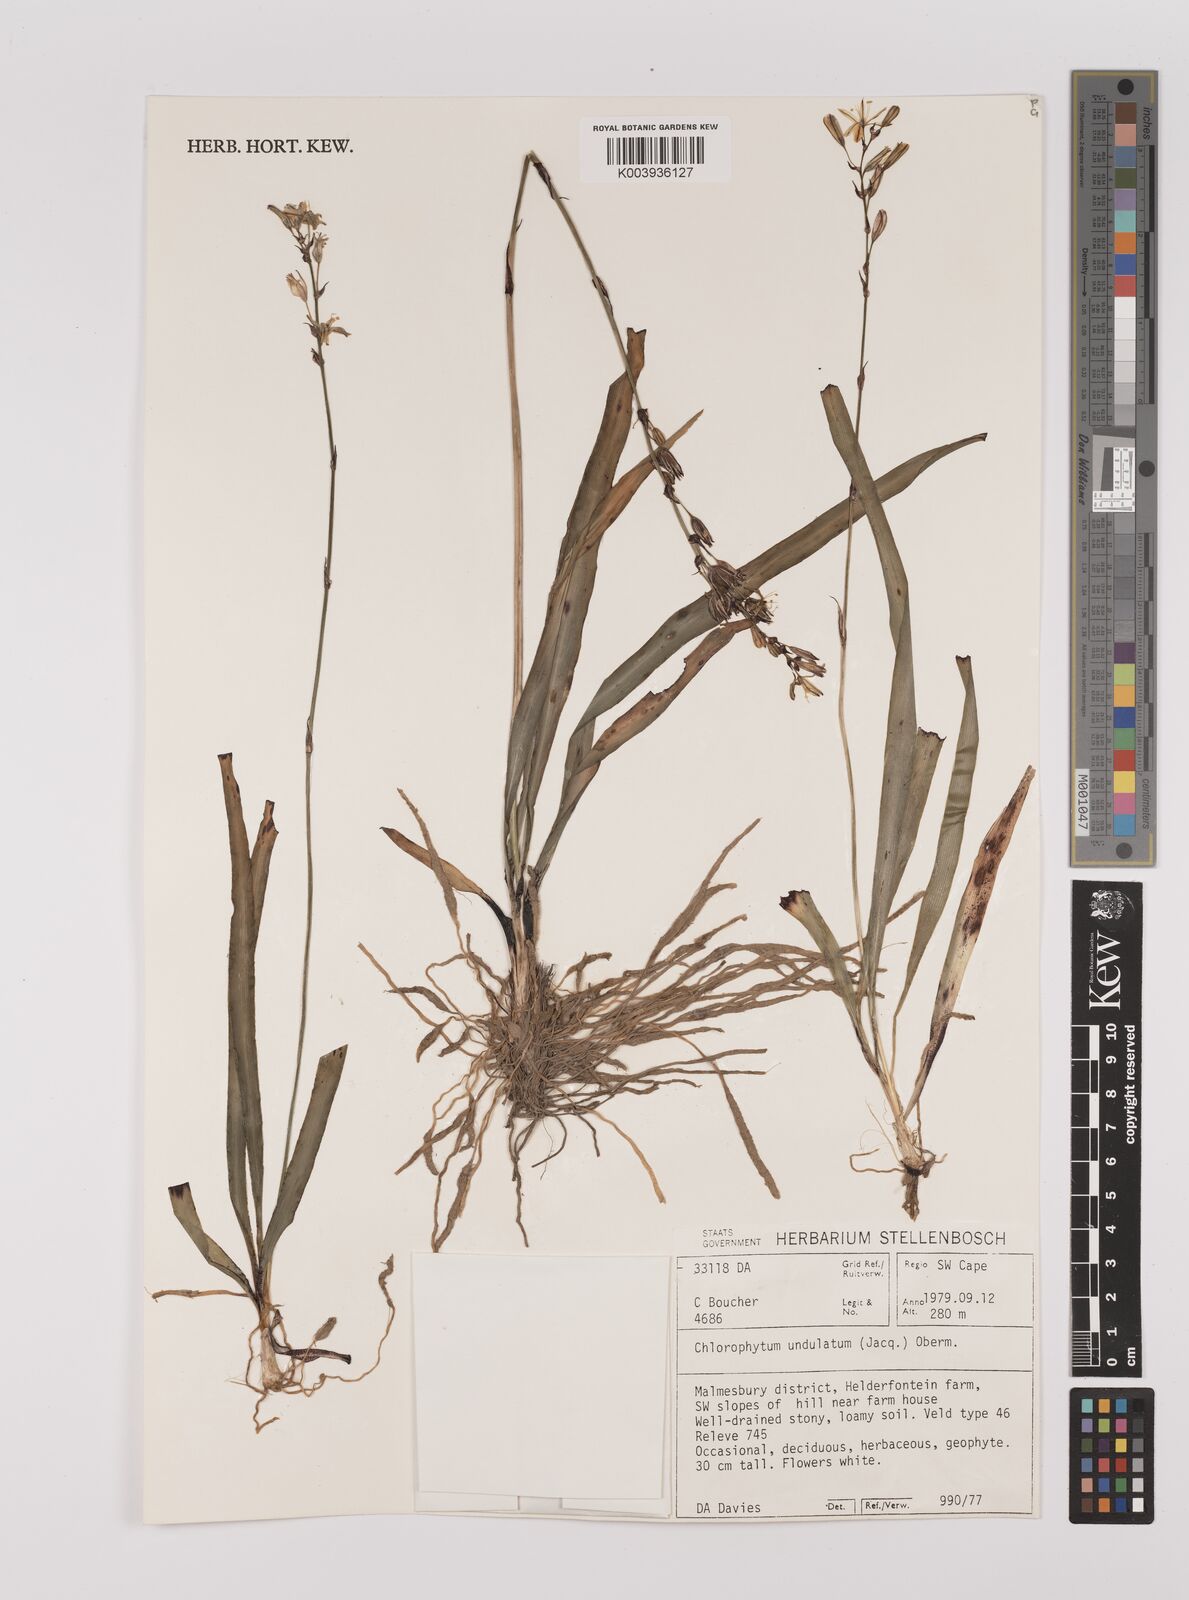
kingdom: Plantae
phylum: Tracheophyta
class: Liliopsida
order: Asparagales
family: Asparagaceae
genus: Chlorophytum
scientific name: Chlorophytum graminifolium
